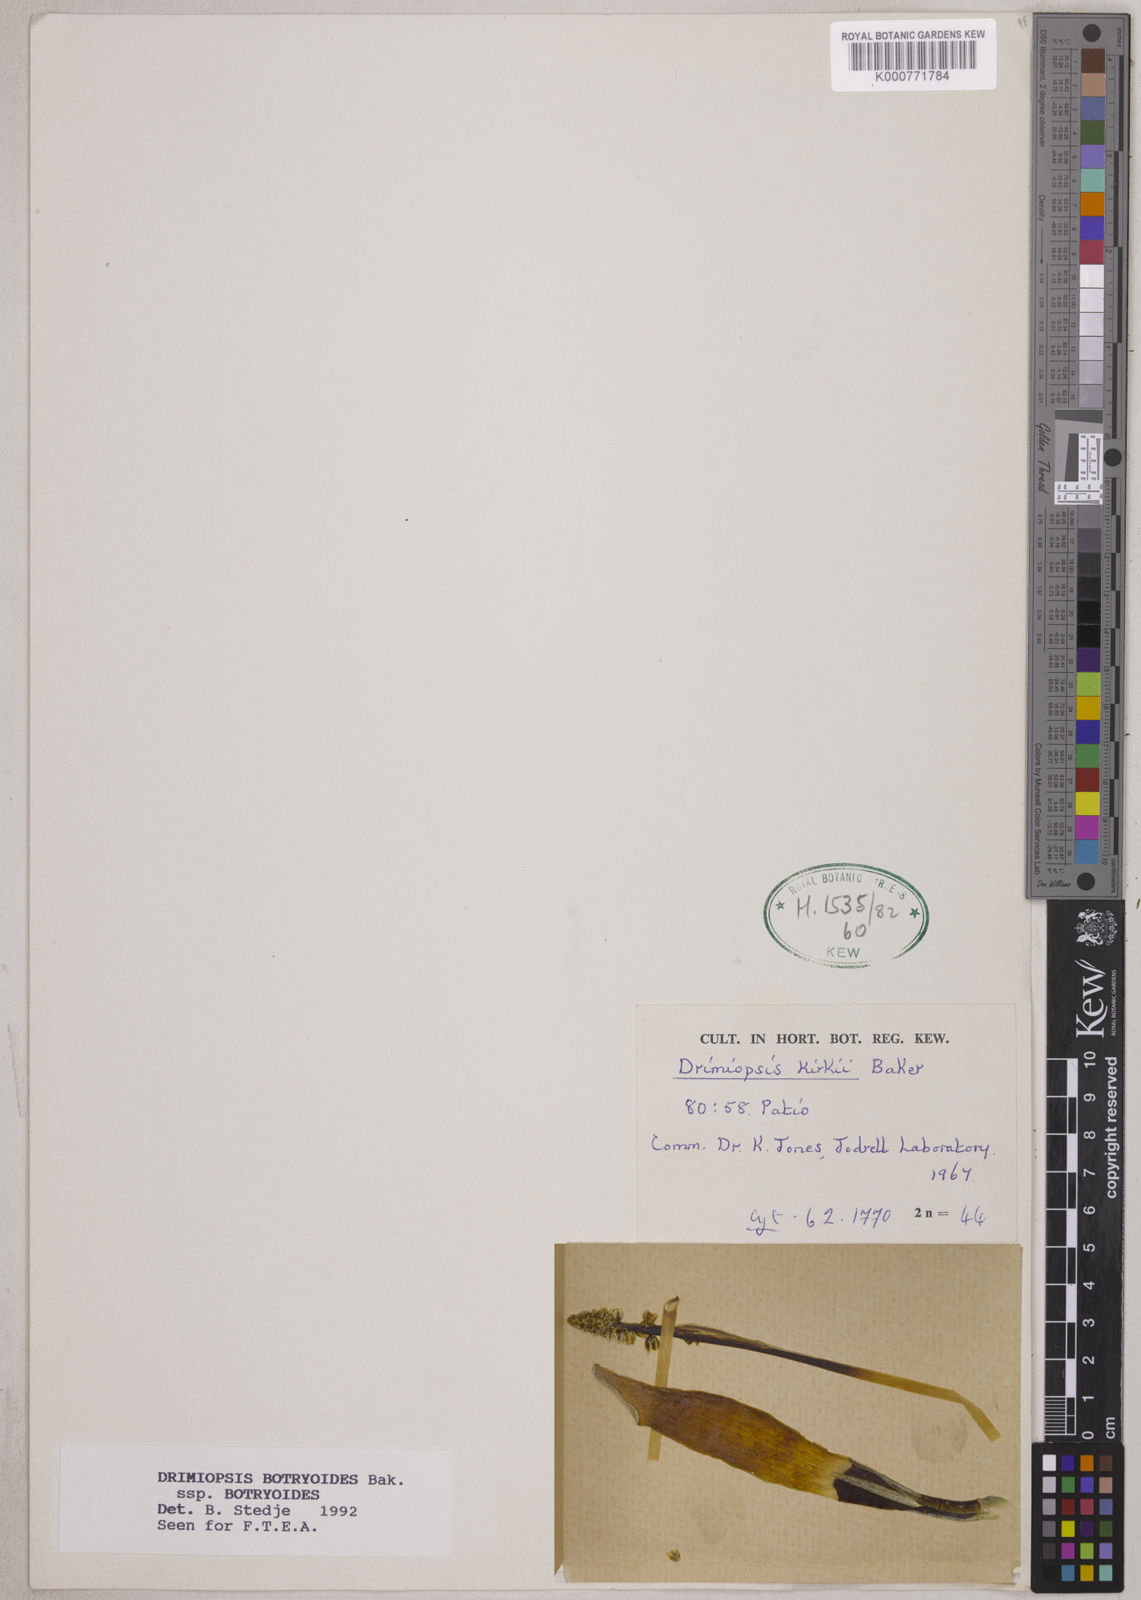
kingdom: Plantae
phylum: Tracheophyta
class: Liliopsida
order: Asparagales
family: Asparagaceae
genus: Drimiopsis
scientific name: Drimiopsis botryoides
